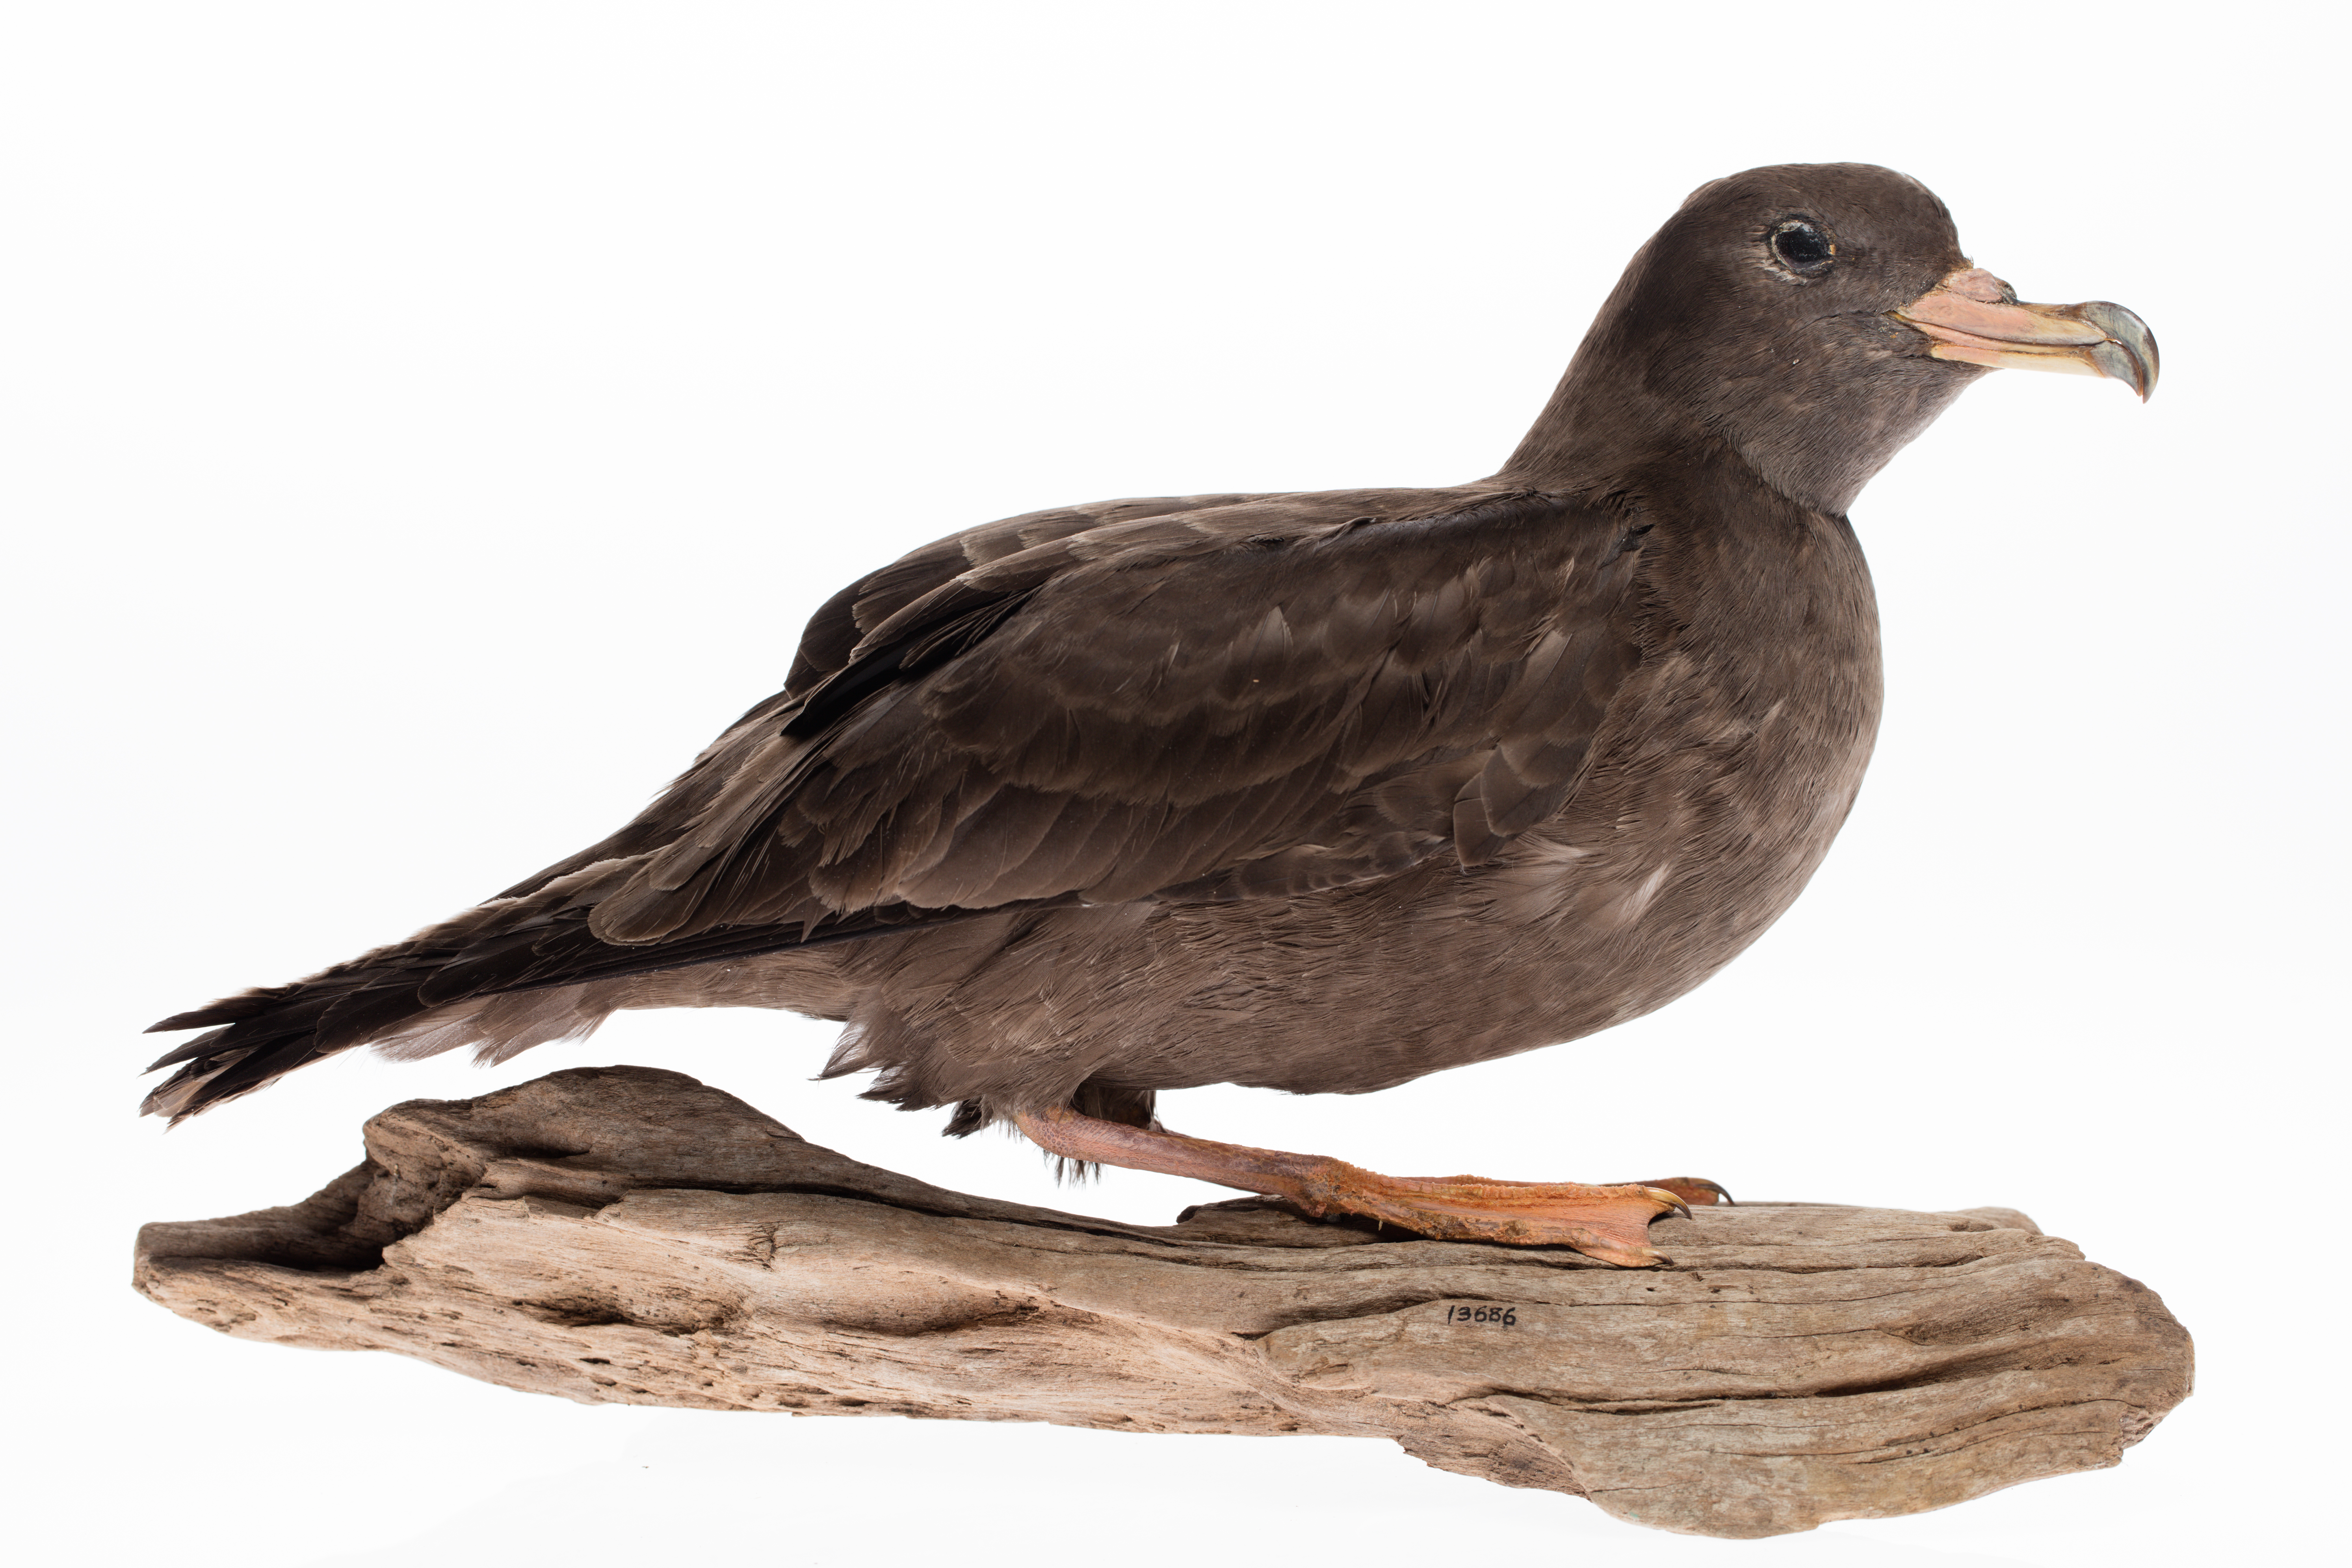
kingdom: Animalia
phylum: Chordata
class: Aves
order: Procellariiformes
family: Procellariidae
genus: Puffinus
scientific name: Puffinus carneipes
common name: Flesh-footed shearwater
